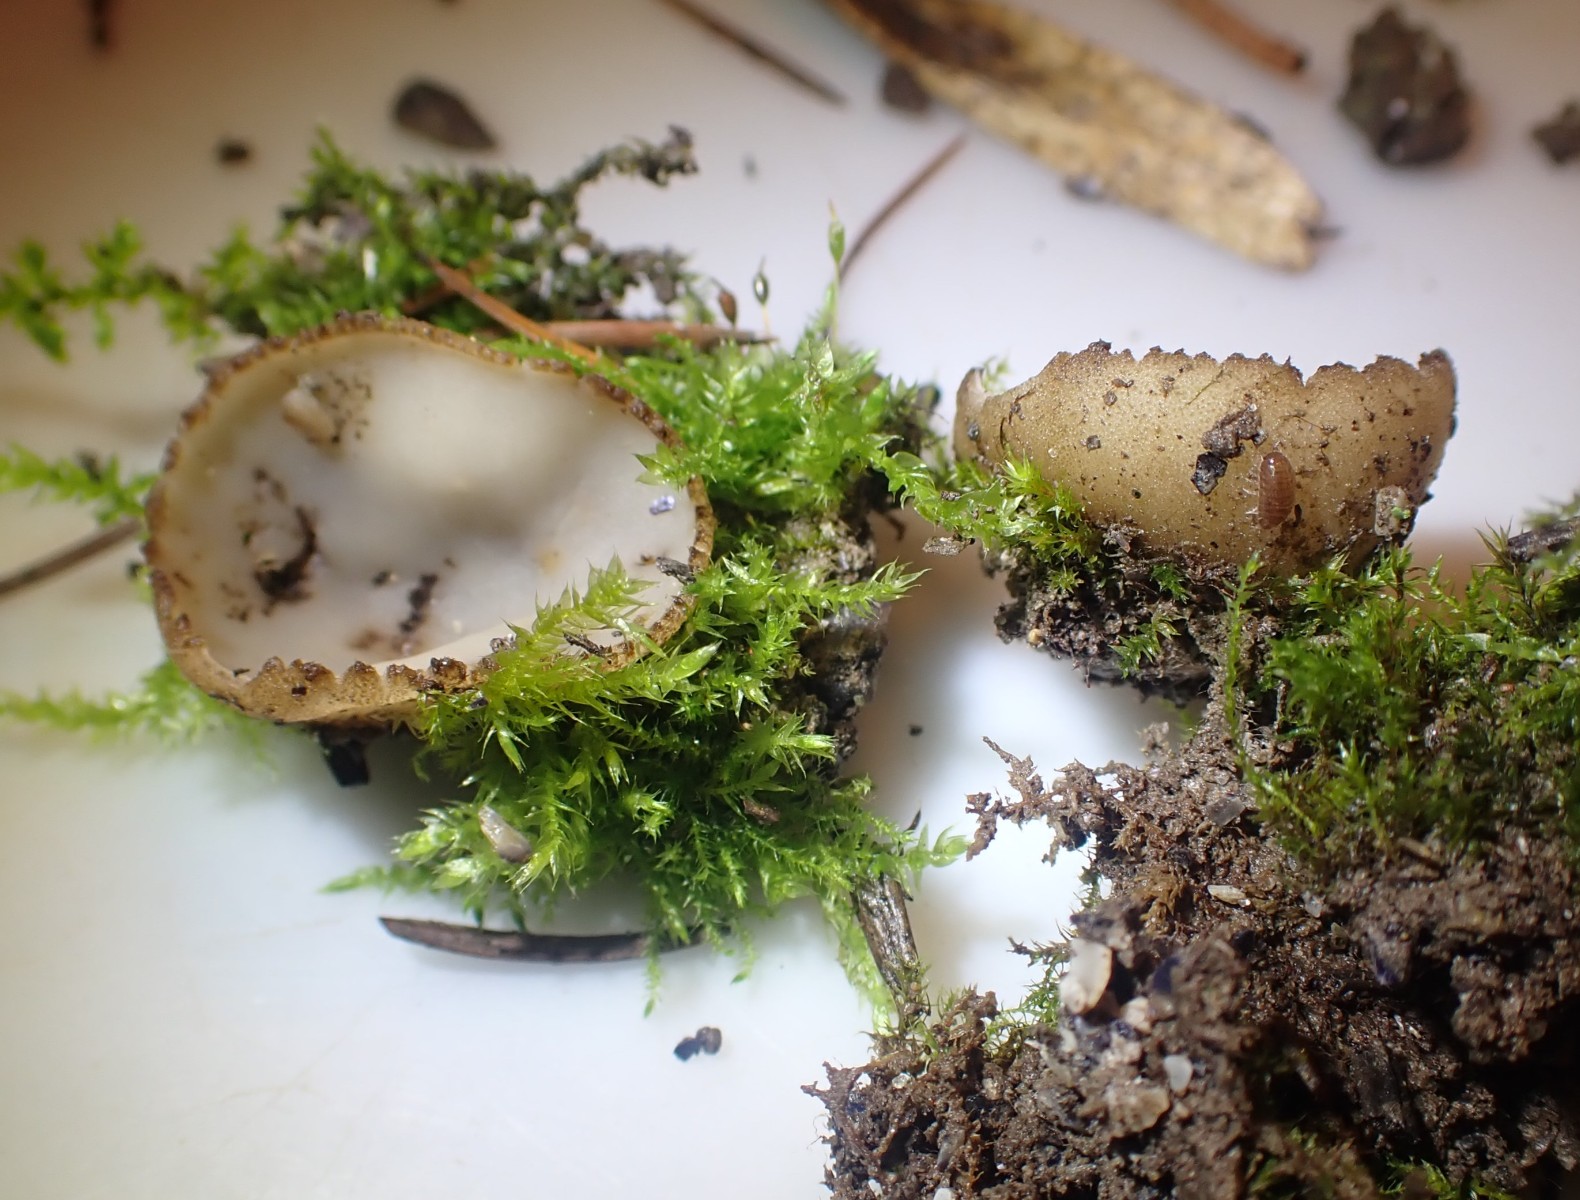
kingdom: Fungi
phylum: Ascomycota
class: Pezizomycetes
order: Pezizales
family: Pyronemataceae
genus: Tarzetta
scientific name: Tarzetta cupularis
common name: gulbrun pokalbæger
